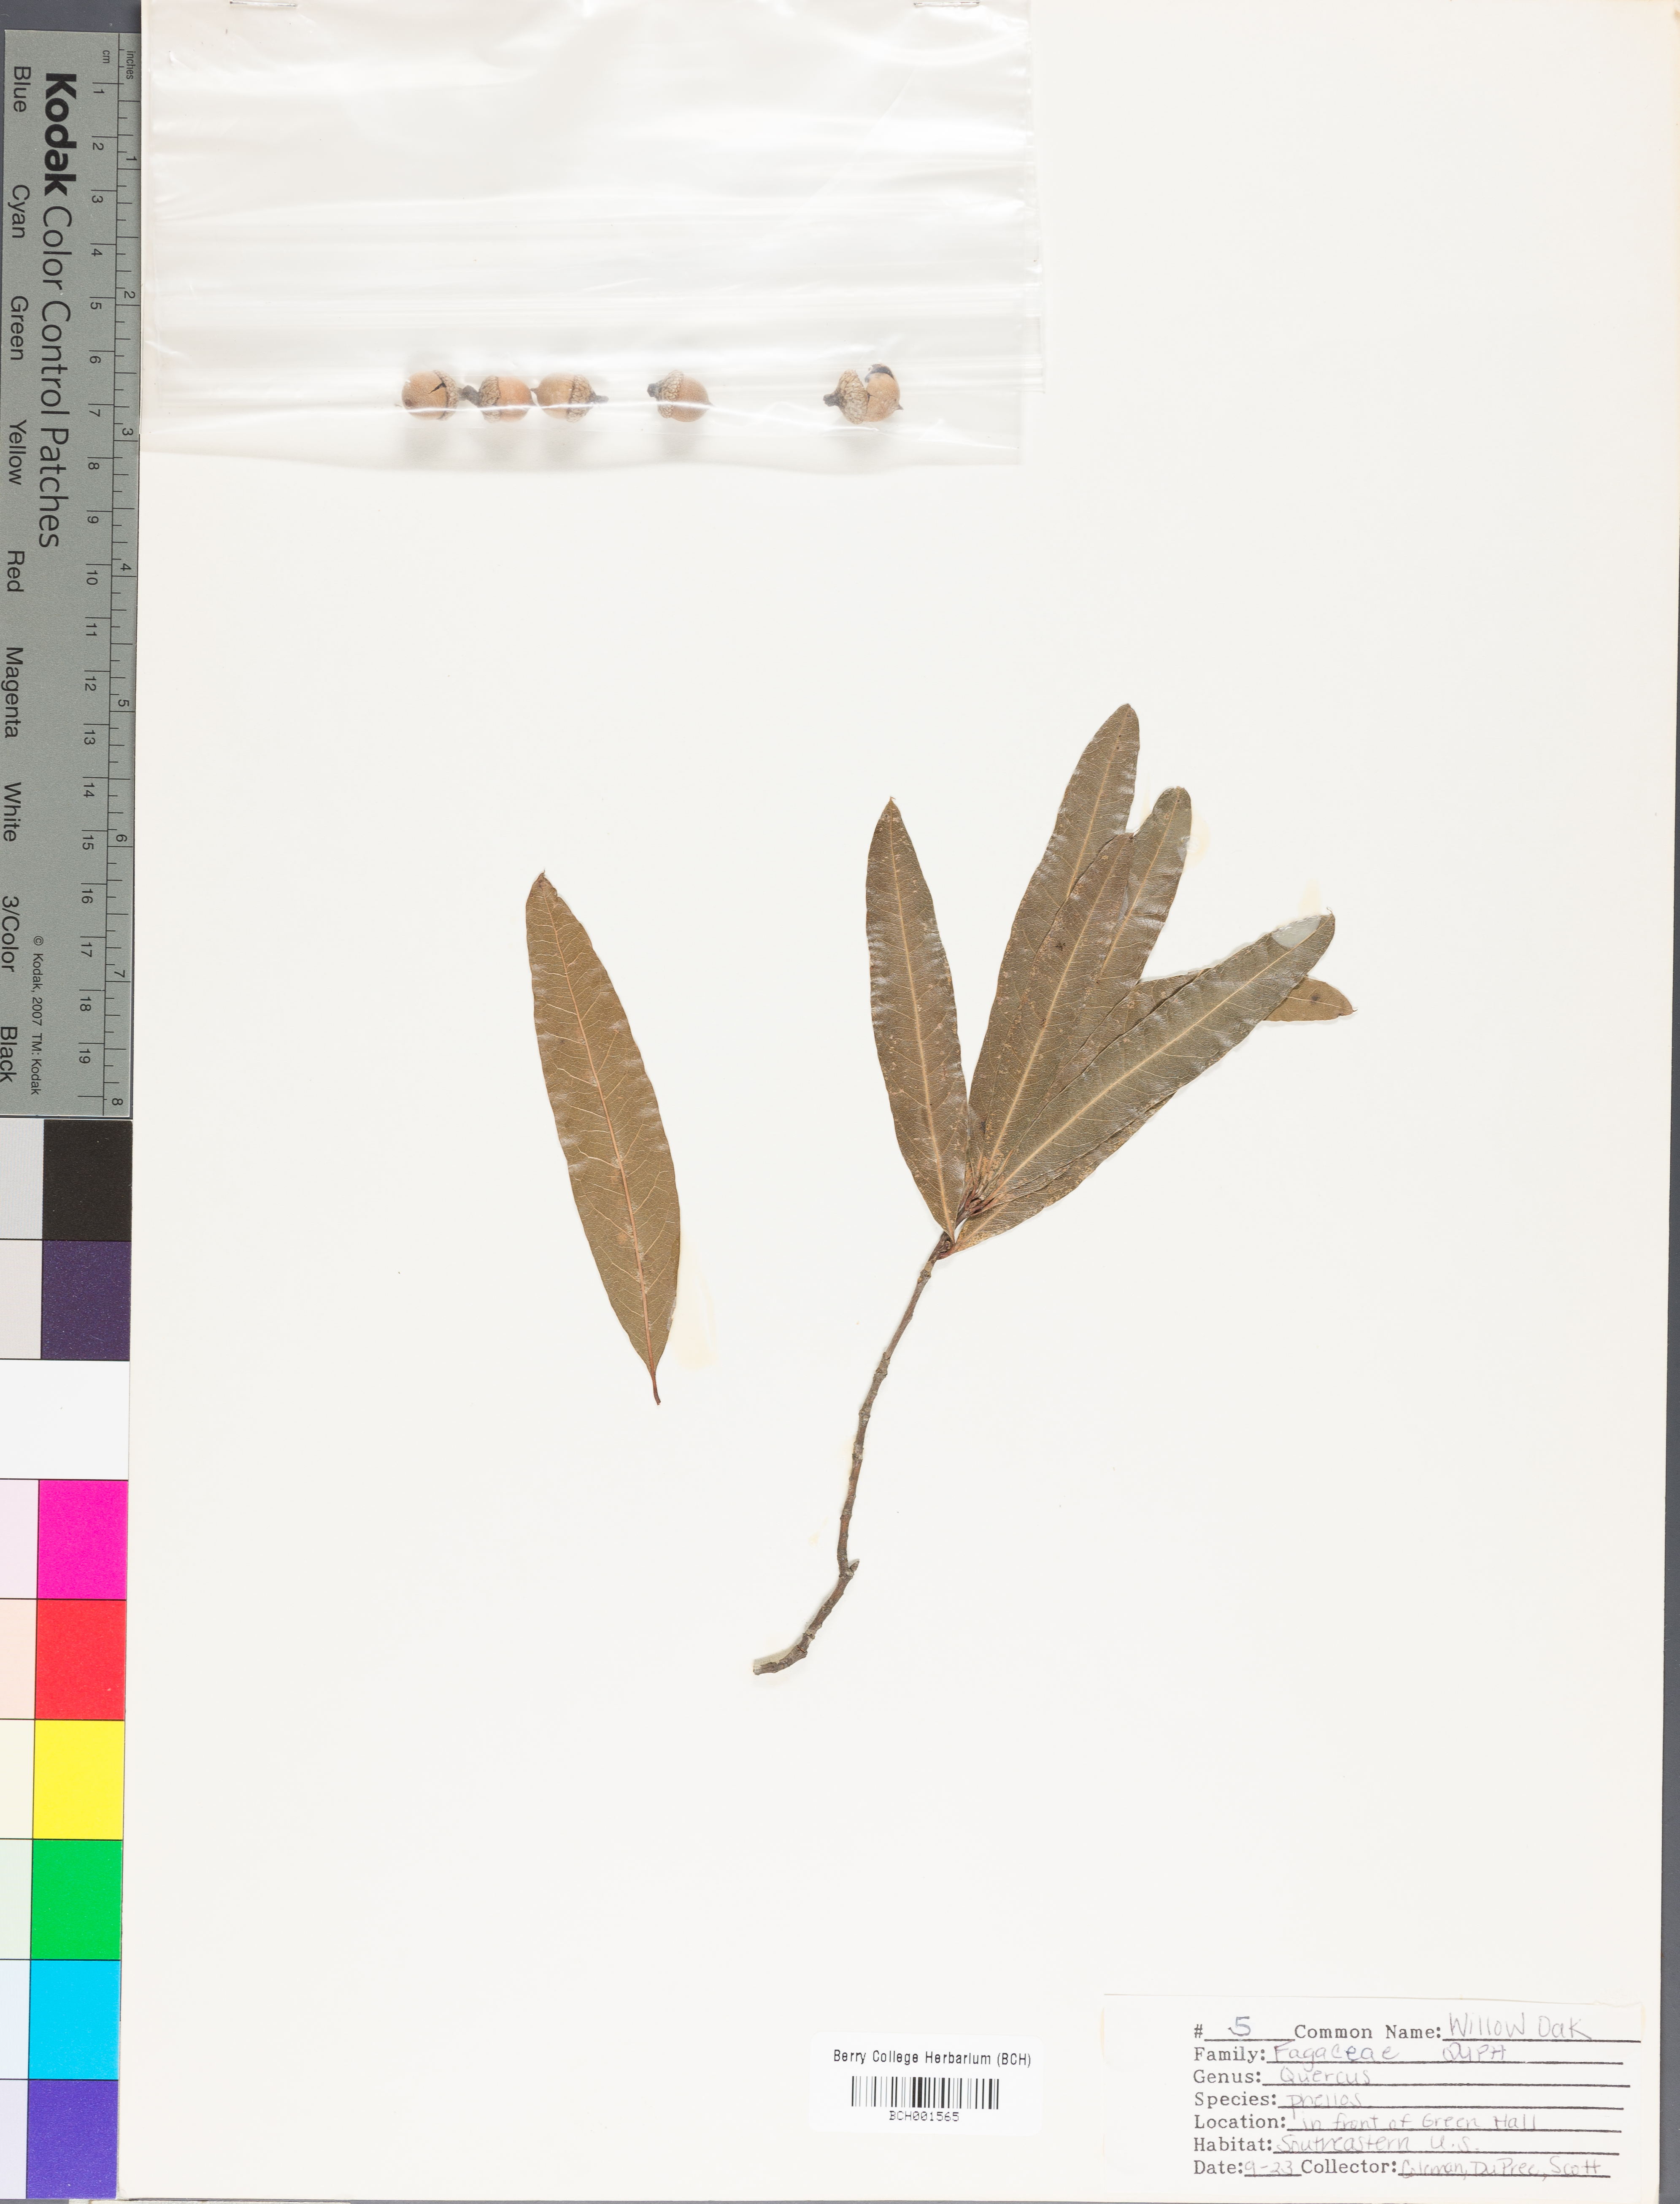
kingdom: Plantae
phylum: Tracheophyta
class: Magnoliopsida
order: Fagales
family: Fagaceae
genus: Quercus
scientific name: Quercus phellos
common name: Willow oak
